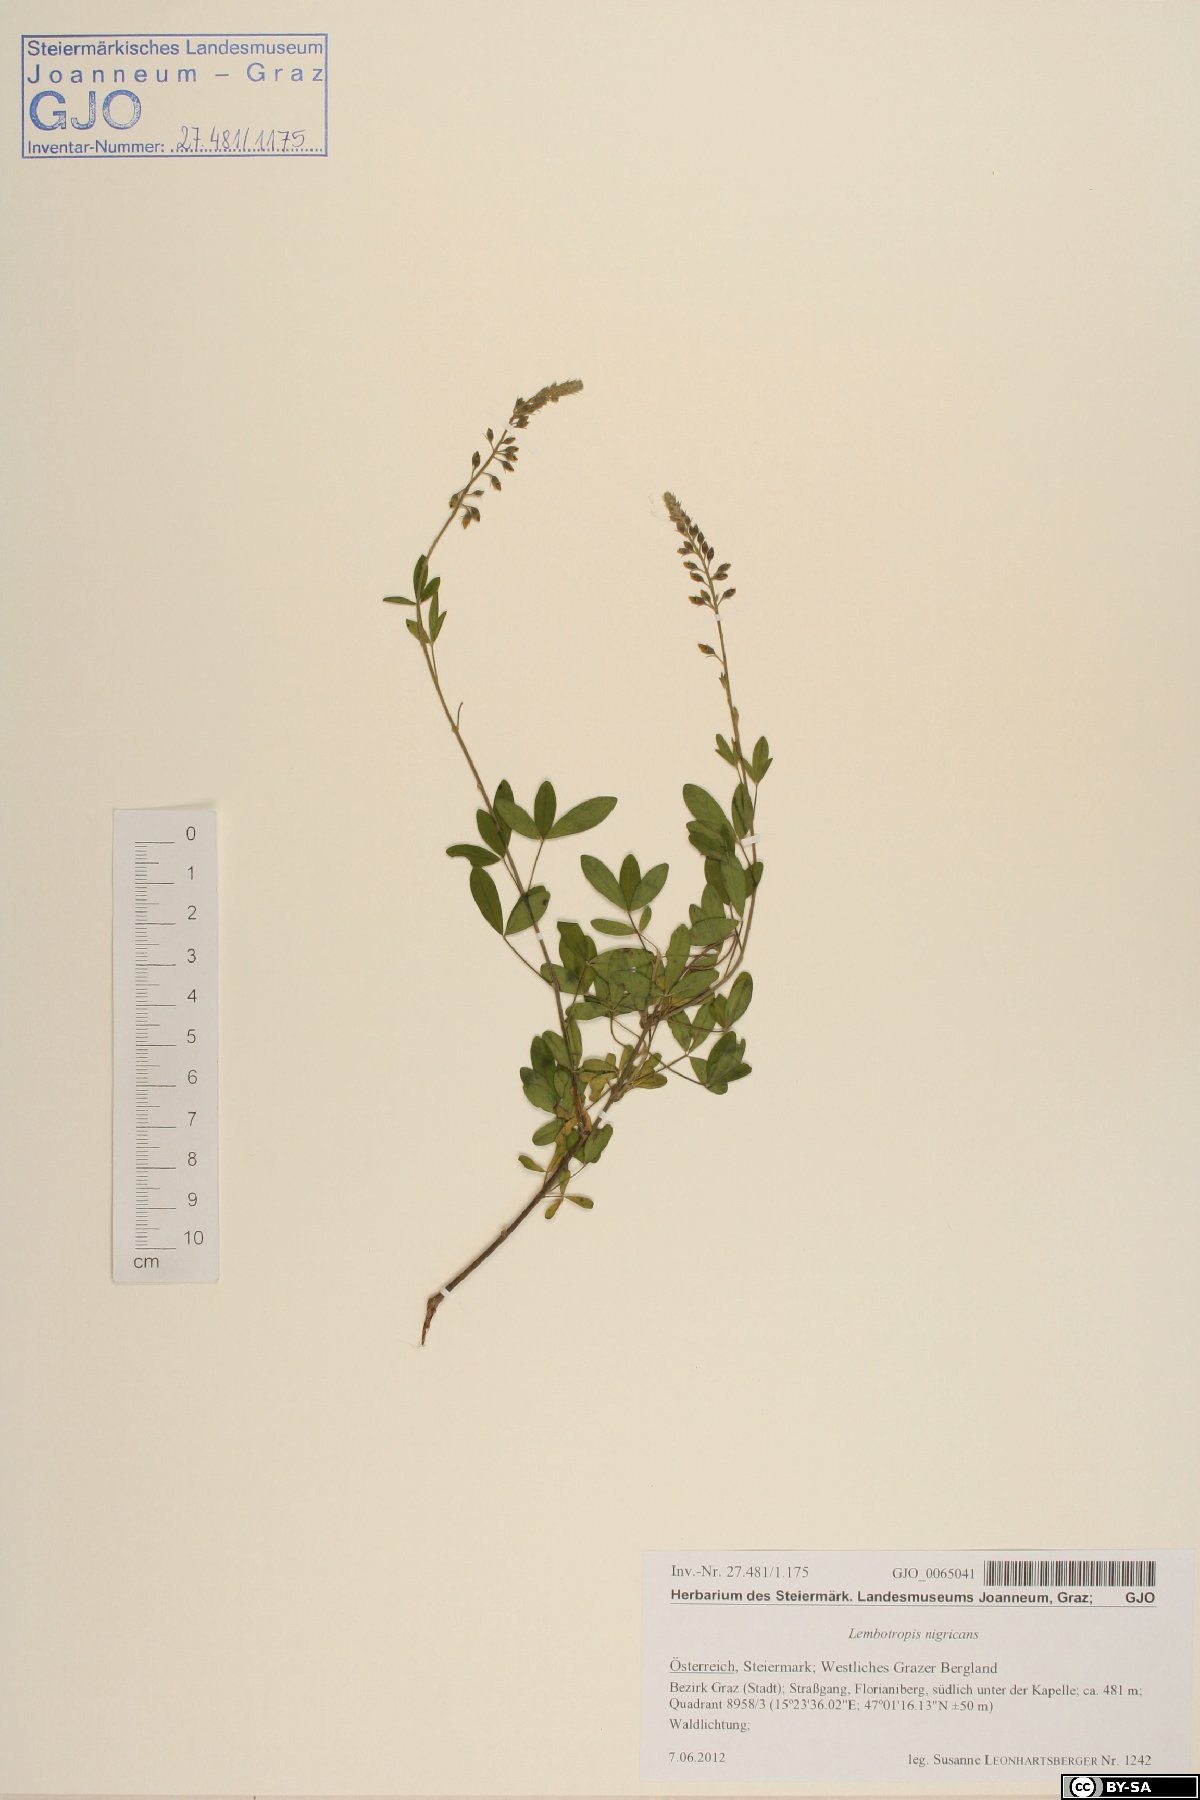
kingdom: Plantae
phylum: Tracheophyta
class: Magnoliopsida
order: Fabales
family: Fabaceae
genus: Cytisus
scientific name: Cytisus nigricans
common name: Black broom
